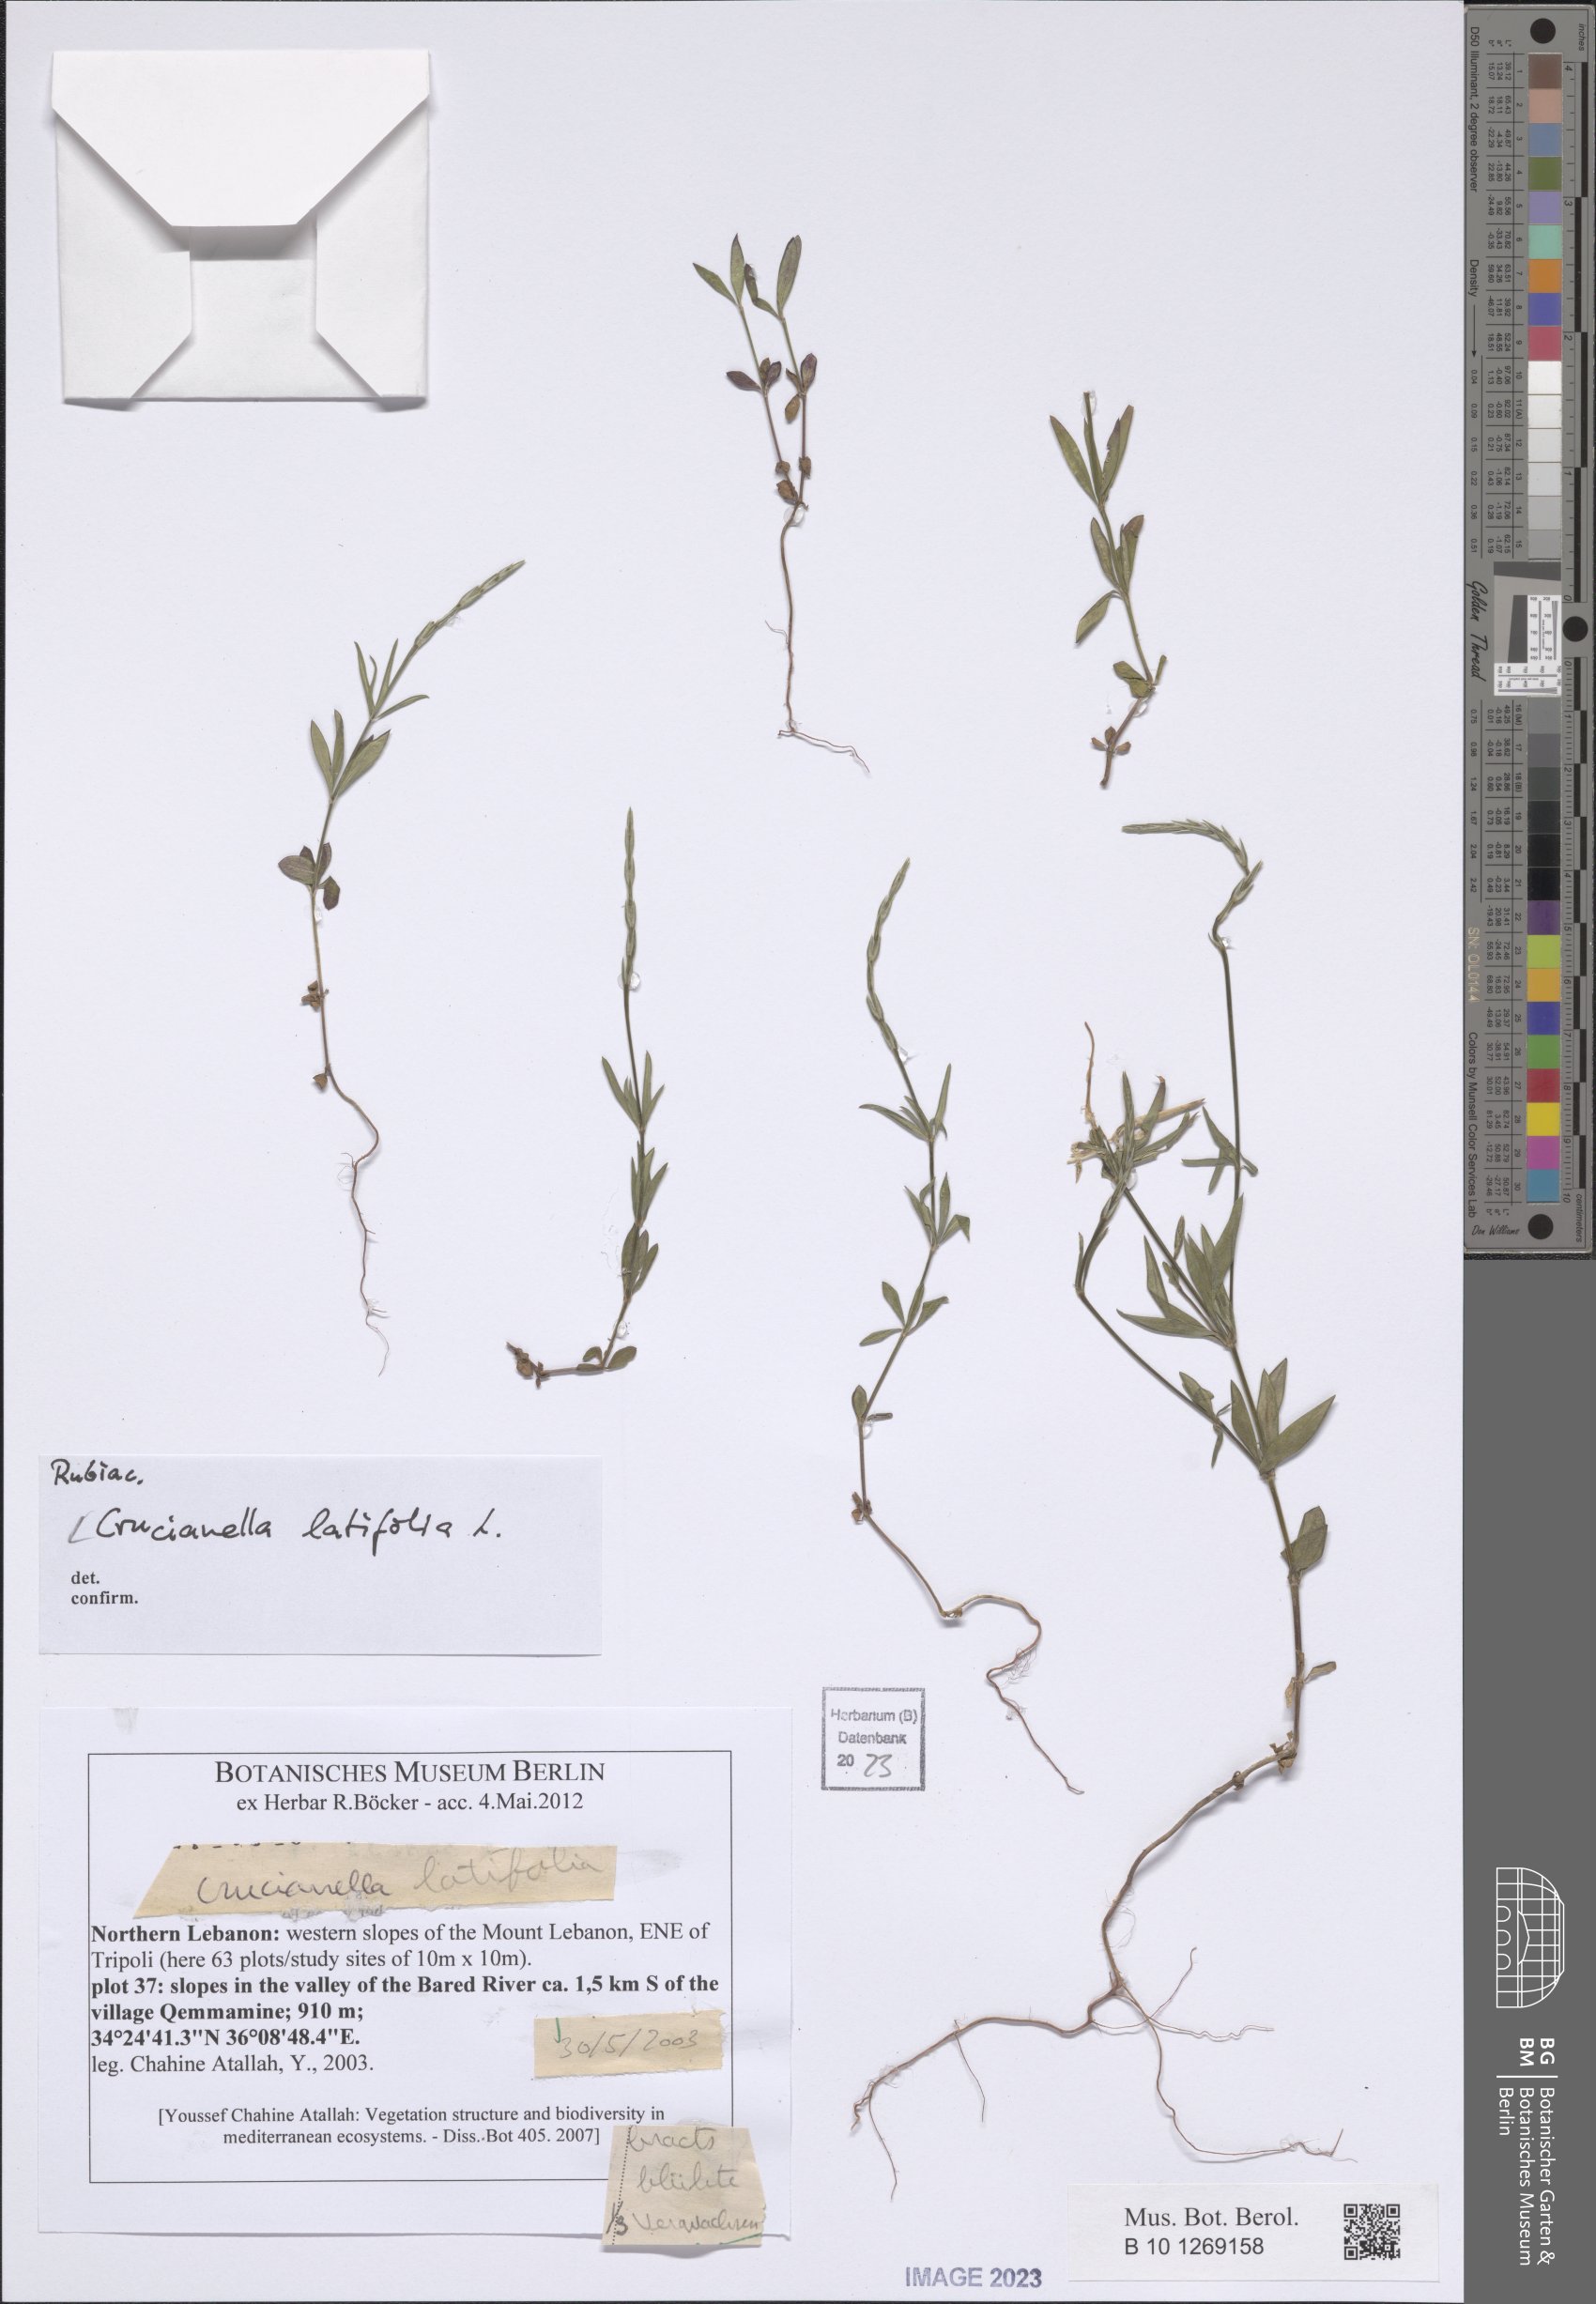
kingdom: Plantae
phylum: Tracheophyta
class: Magnoliopsida
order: Gentianales
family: Rubiaceae
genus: Crucianella
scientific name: Crucianella latifolia
